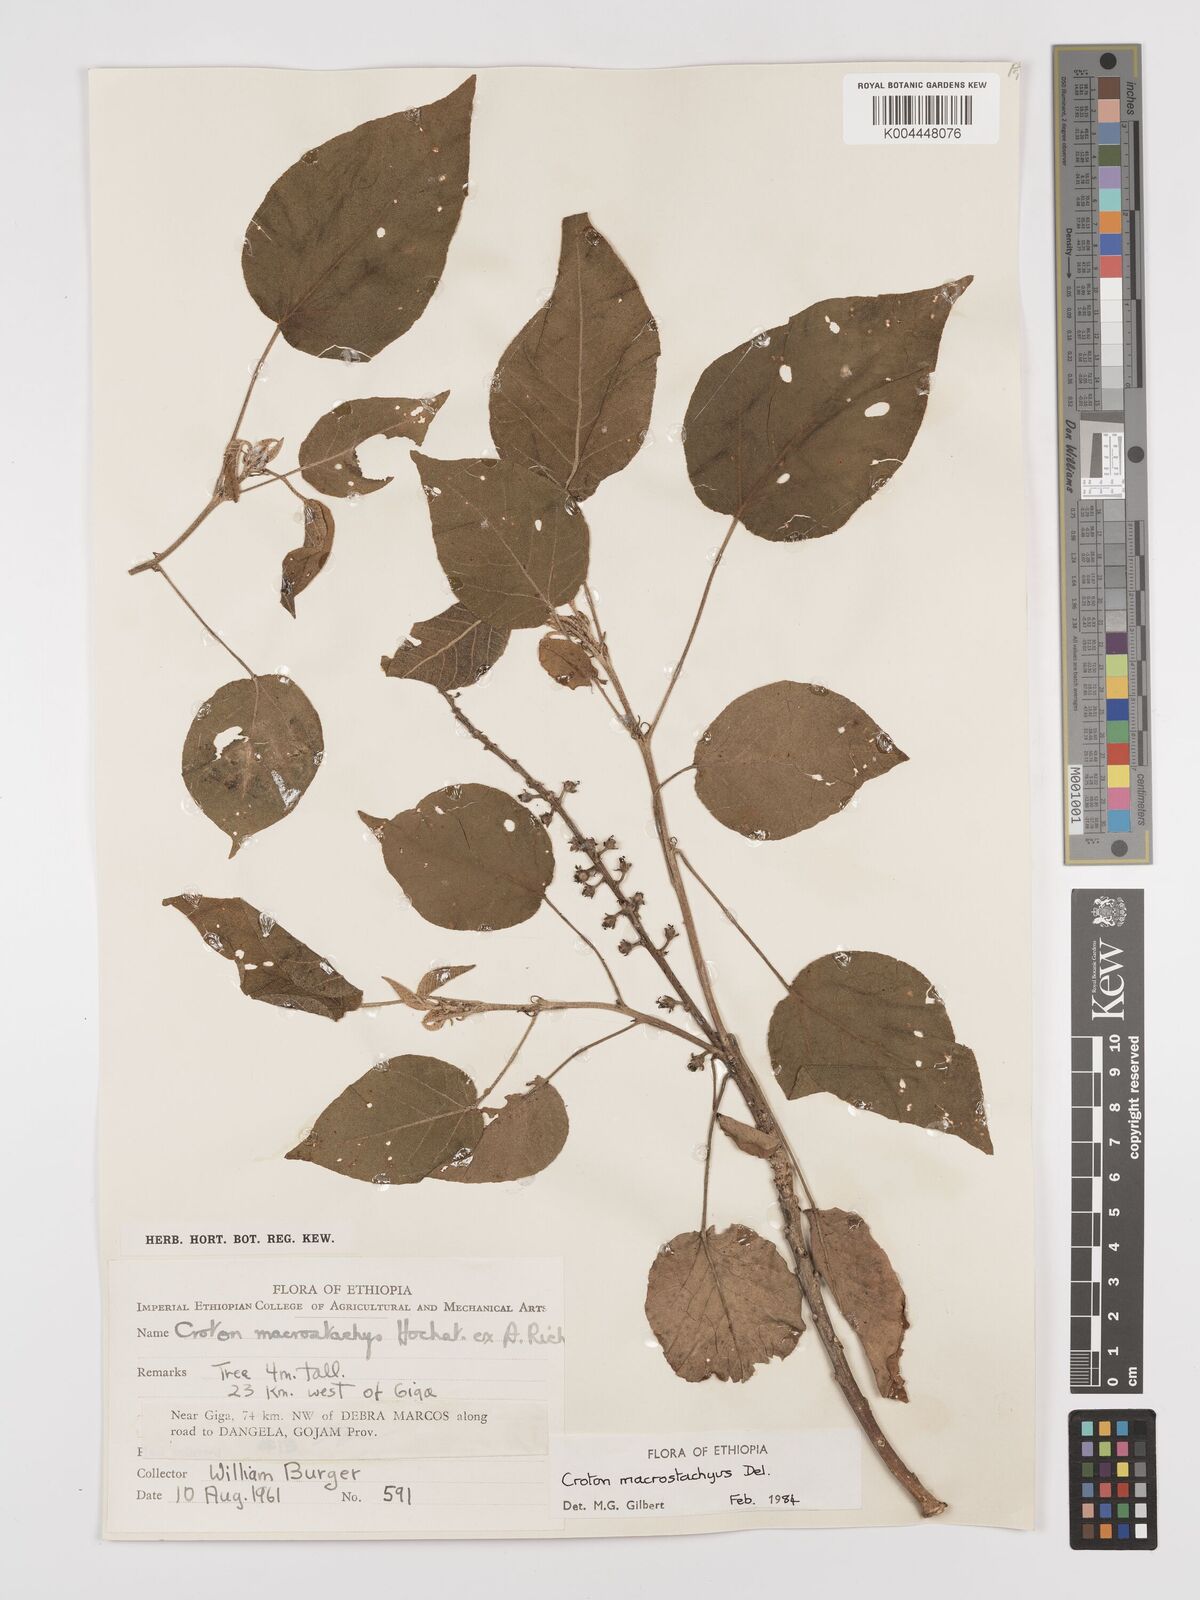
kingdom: Plantae
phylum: Tracheophyta
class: Magnoliopsida
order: Malpighiales
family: Euphorbiaceae
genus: Croton
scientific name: Croton macrostachyus
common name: Mutundu
